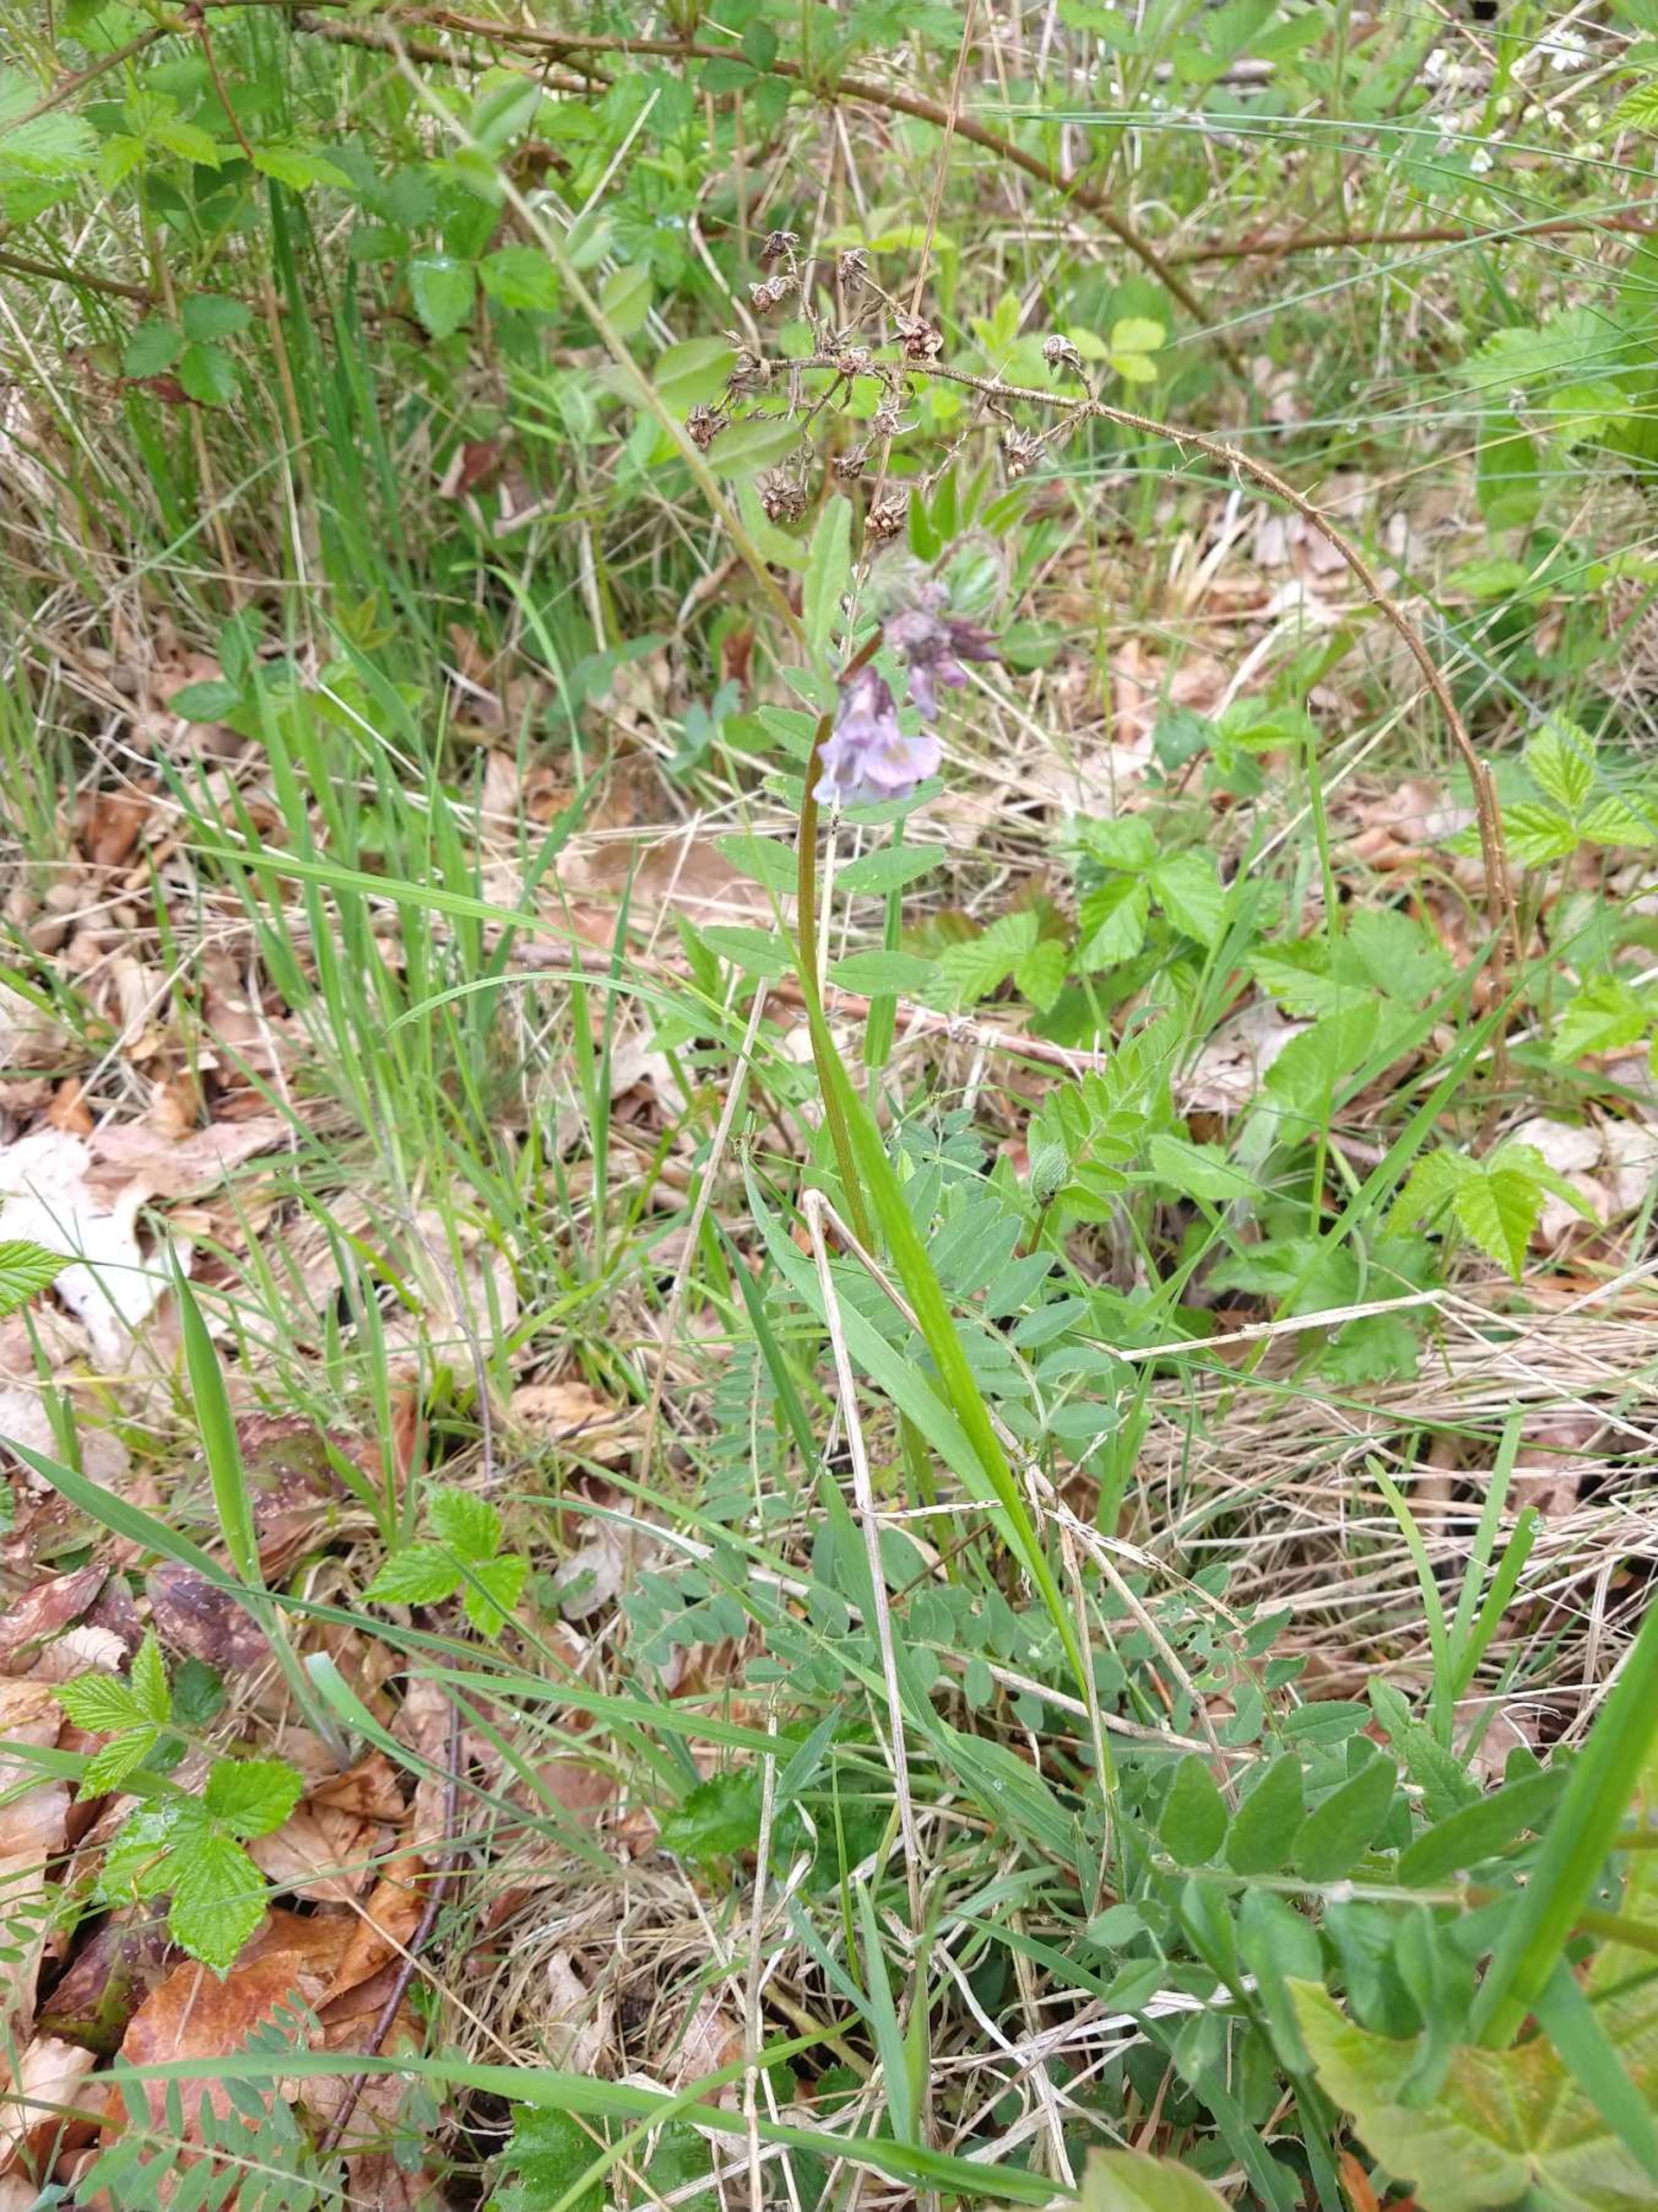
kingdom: Plantae
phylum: Tracheophyta
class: Magnoliopsida
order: Fabales
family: Fabaceae
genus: Vicia
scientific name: Vicia sepium
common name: Gærde-vikke
